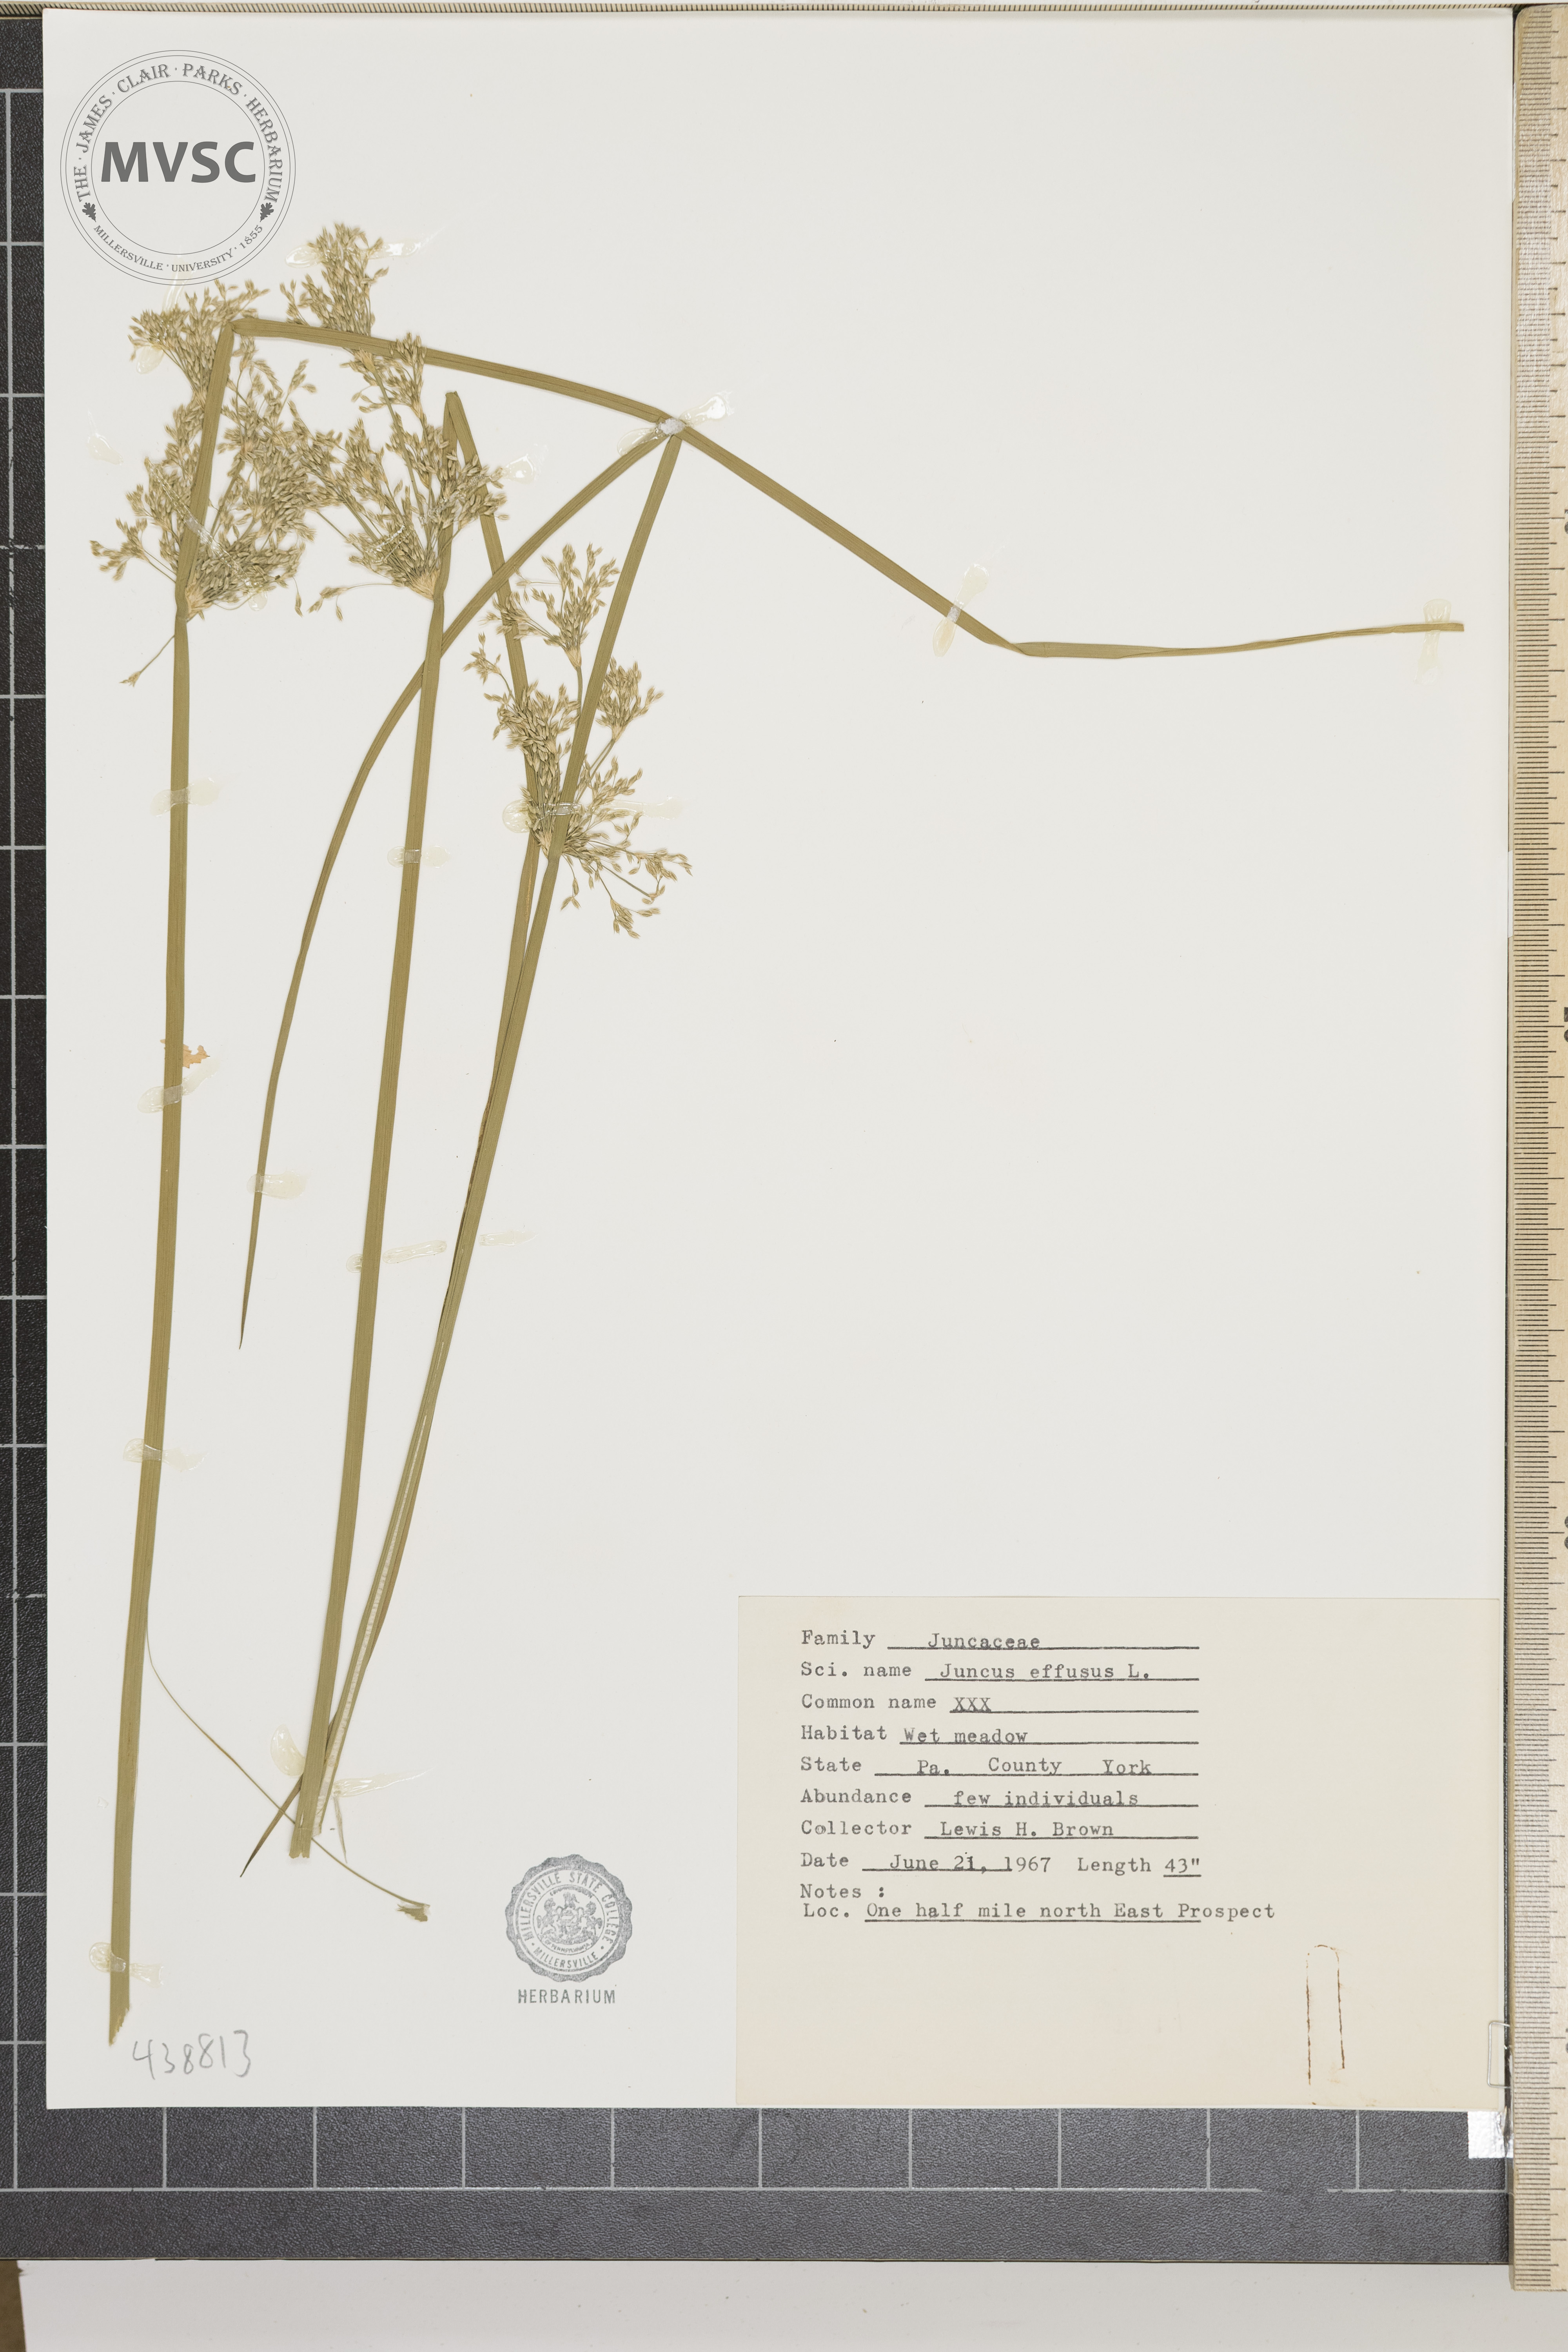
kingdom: Plantae
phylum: Tracheophyta
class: Liliopsida
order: Poales
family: Juncaceae
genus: Juncus
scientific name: Juncus effusus
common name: Soft rush
